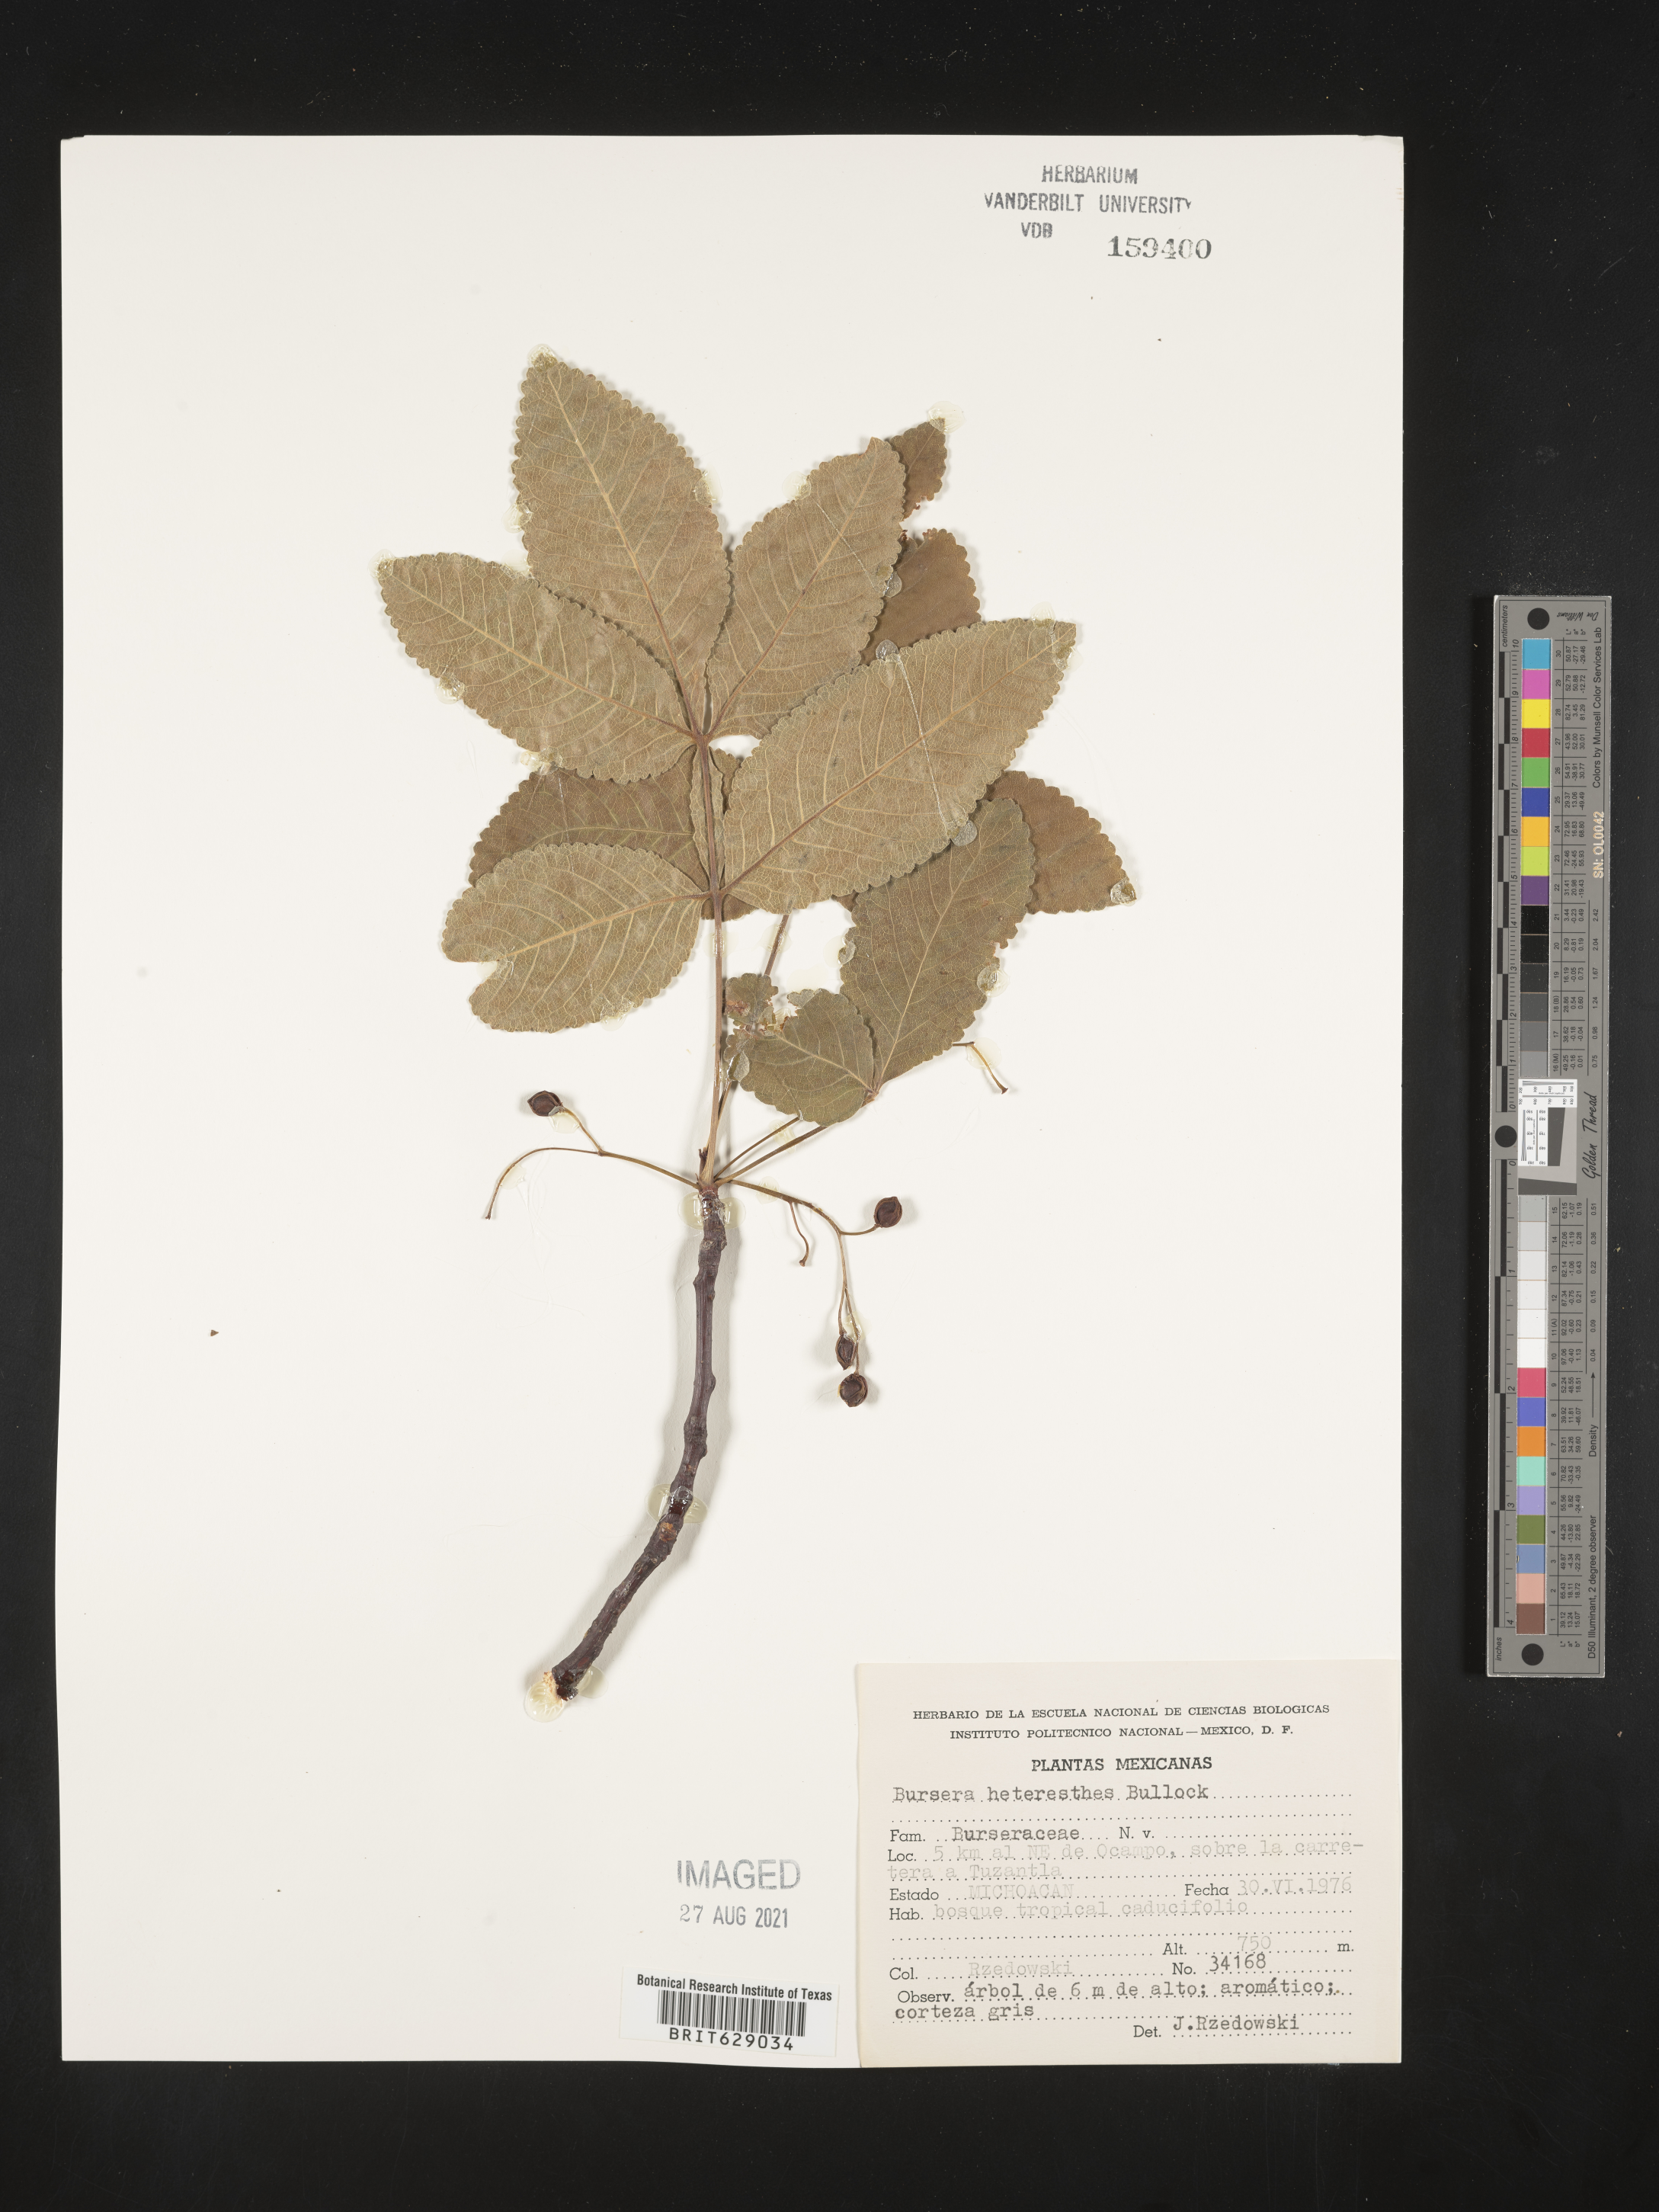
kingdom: Plantae
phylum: Tracheophyta
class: Magnoliopsida
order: Sapindales
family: Burseraceae
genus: Bursera
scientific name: Bursera
